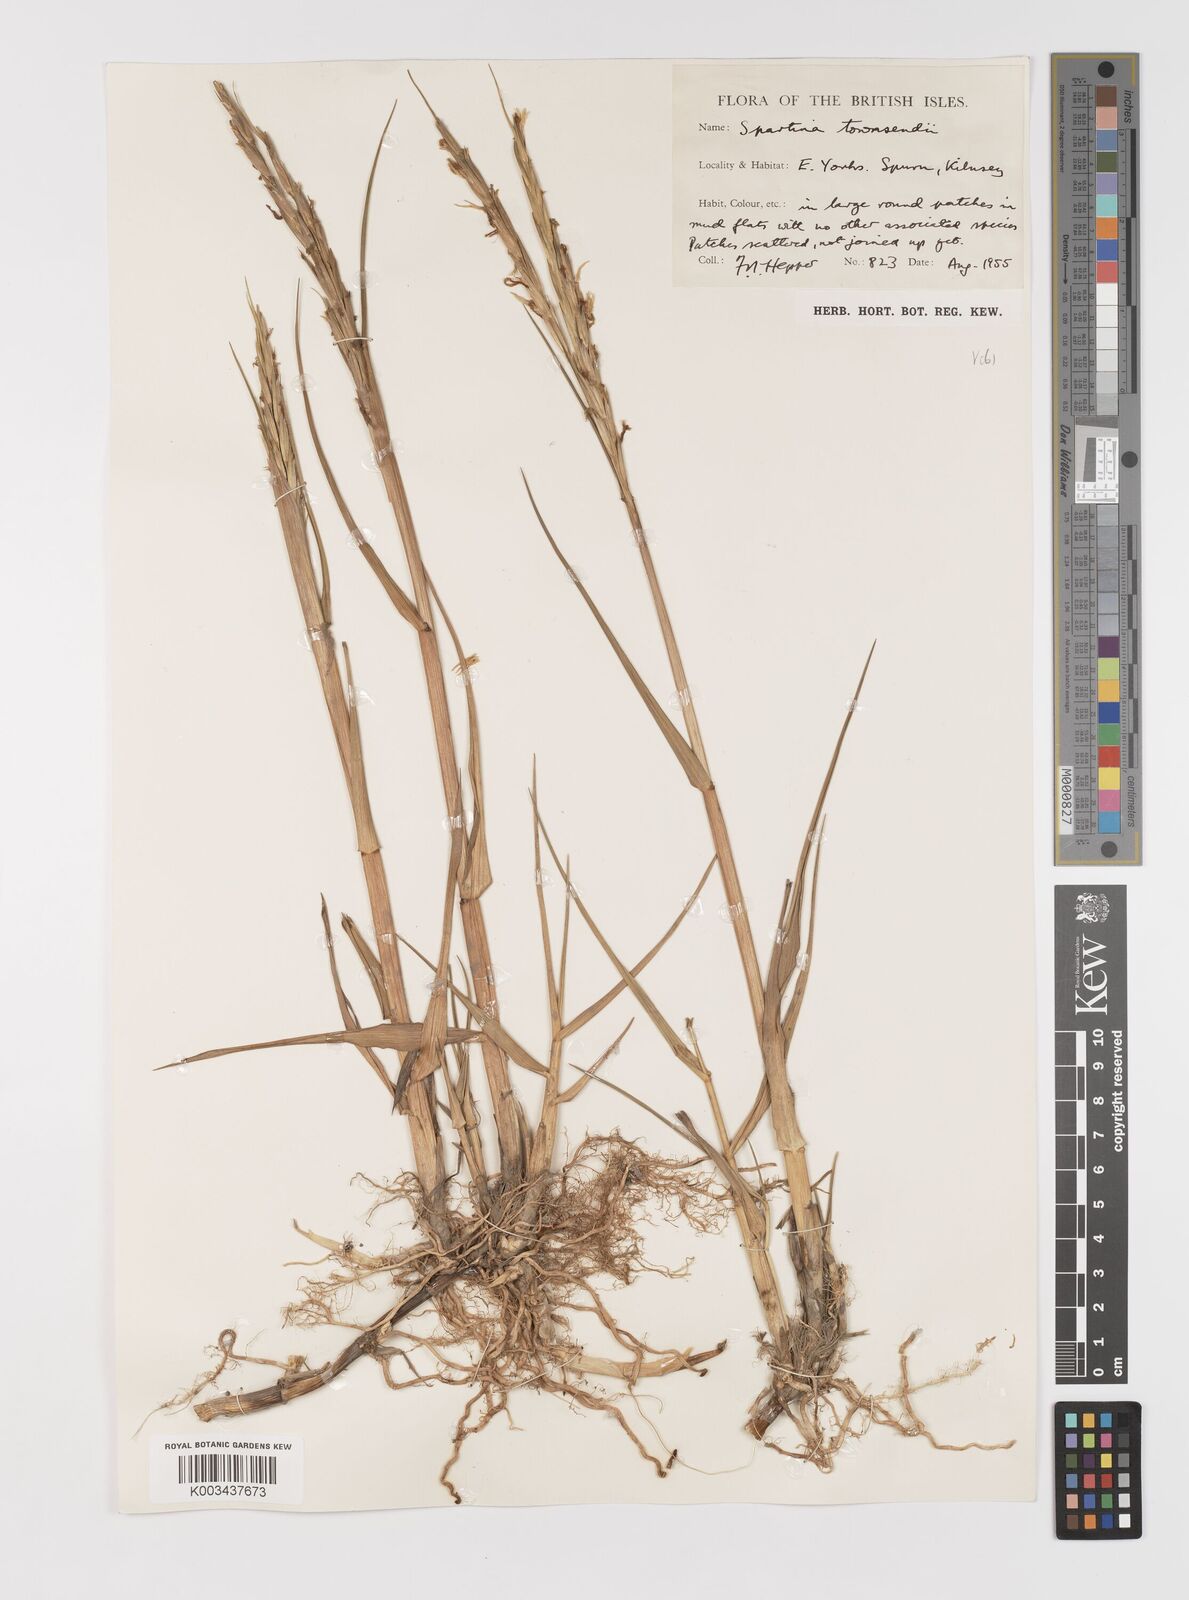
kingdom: Plantae
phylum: Tracheophyta
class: Liliopsida
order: Poales
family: Poaceae
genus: Sporobolus
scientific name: Sporobolus anglicus
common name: English cordgrass
